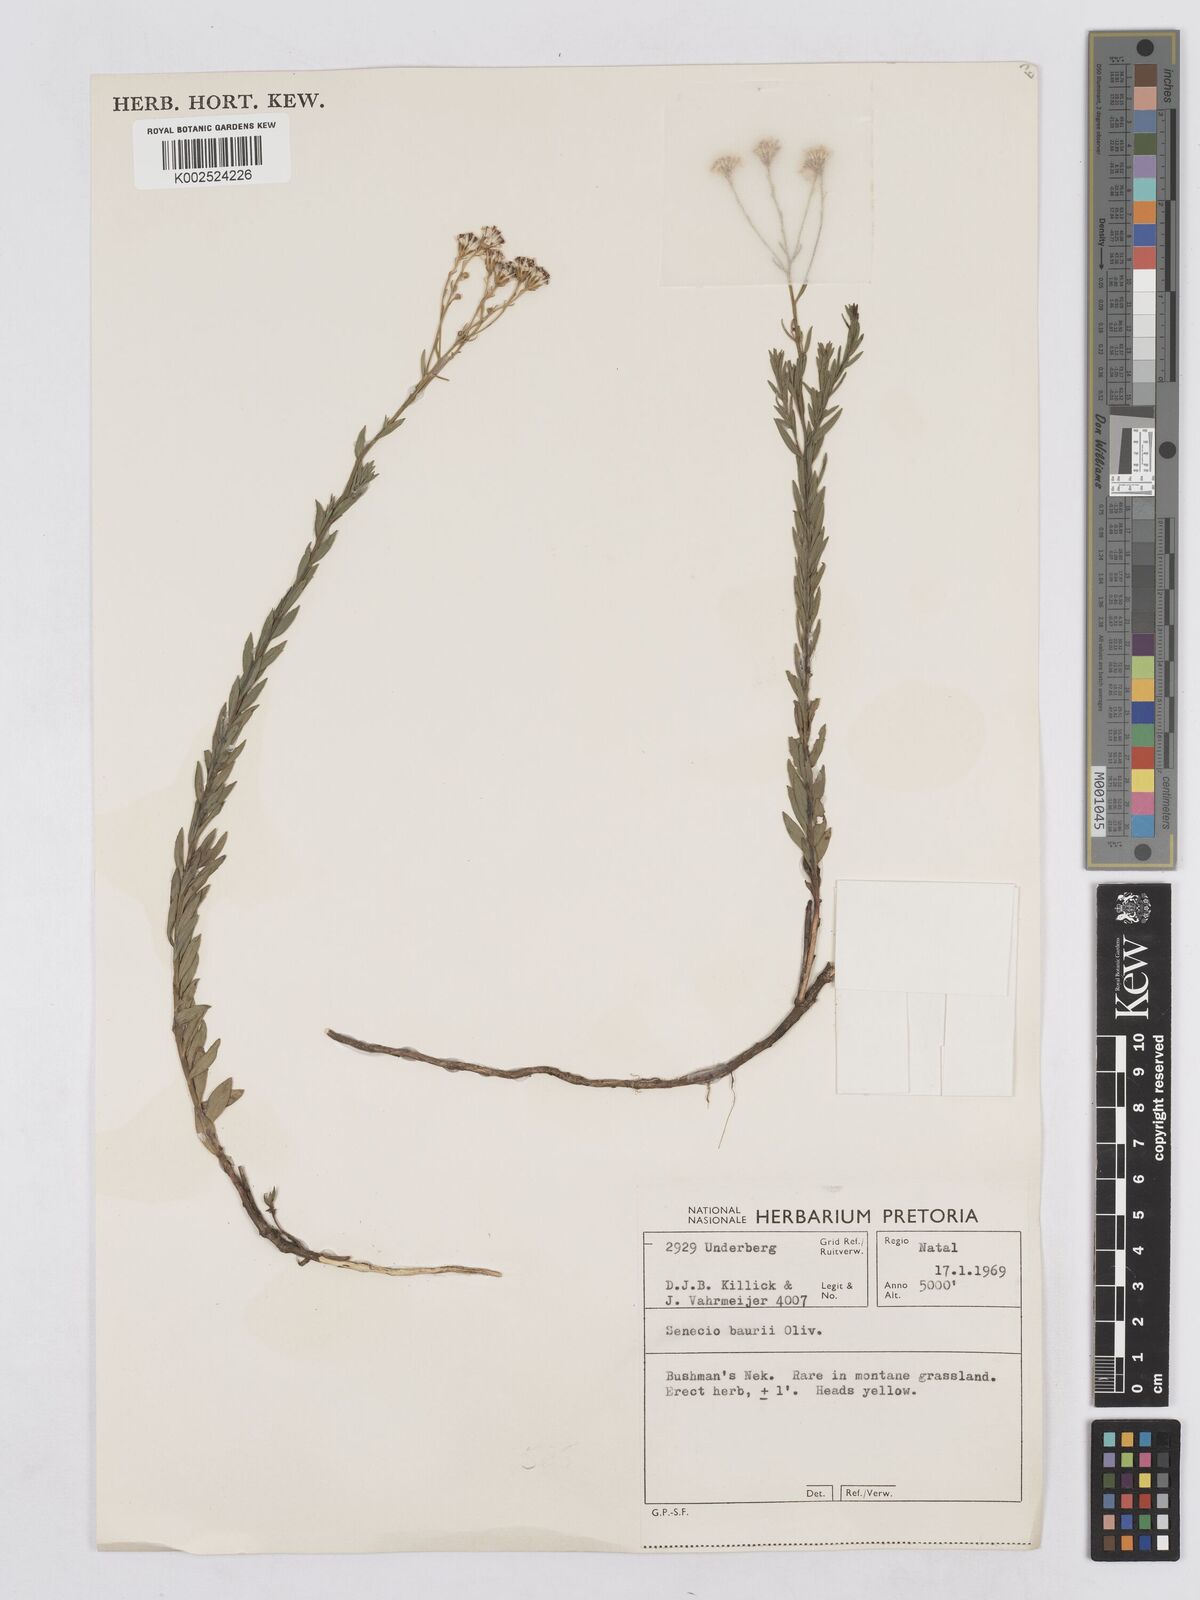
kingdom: Plantae
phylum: Tracheophyta
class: Magnoliopsida
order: Asterales
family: Asteraceae
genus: Senecio
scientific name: Senecio baurii
